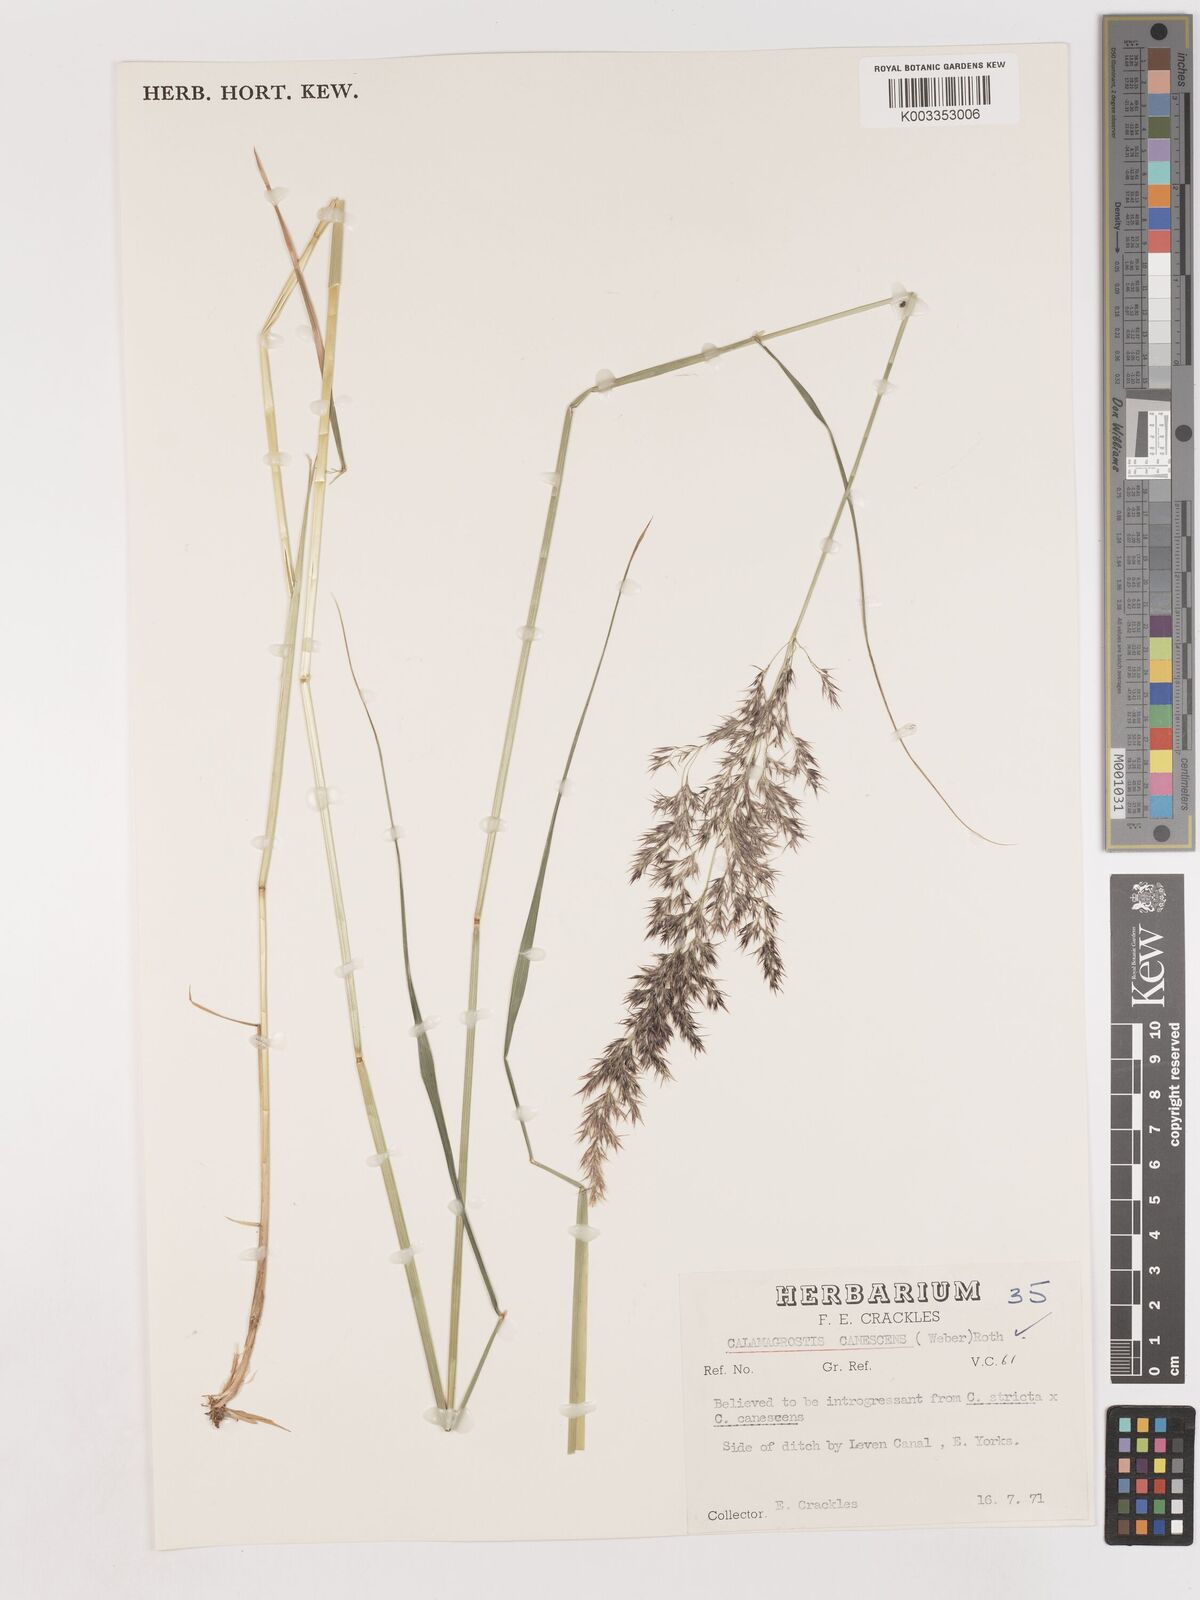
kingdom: Plantae
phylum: Tracheophyta
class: Liliopsida
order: Poales
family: Poaceae
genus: Calamagrostis
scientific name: Calamagrostis canescens
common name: Purple small-reed
